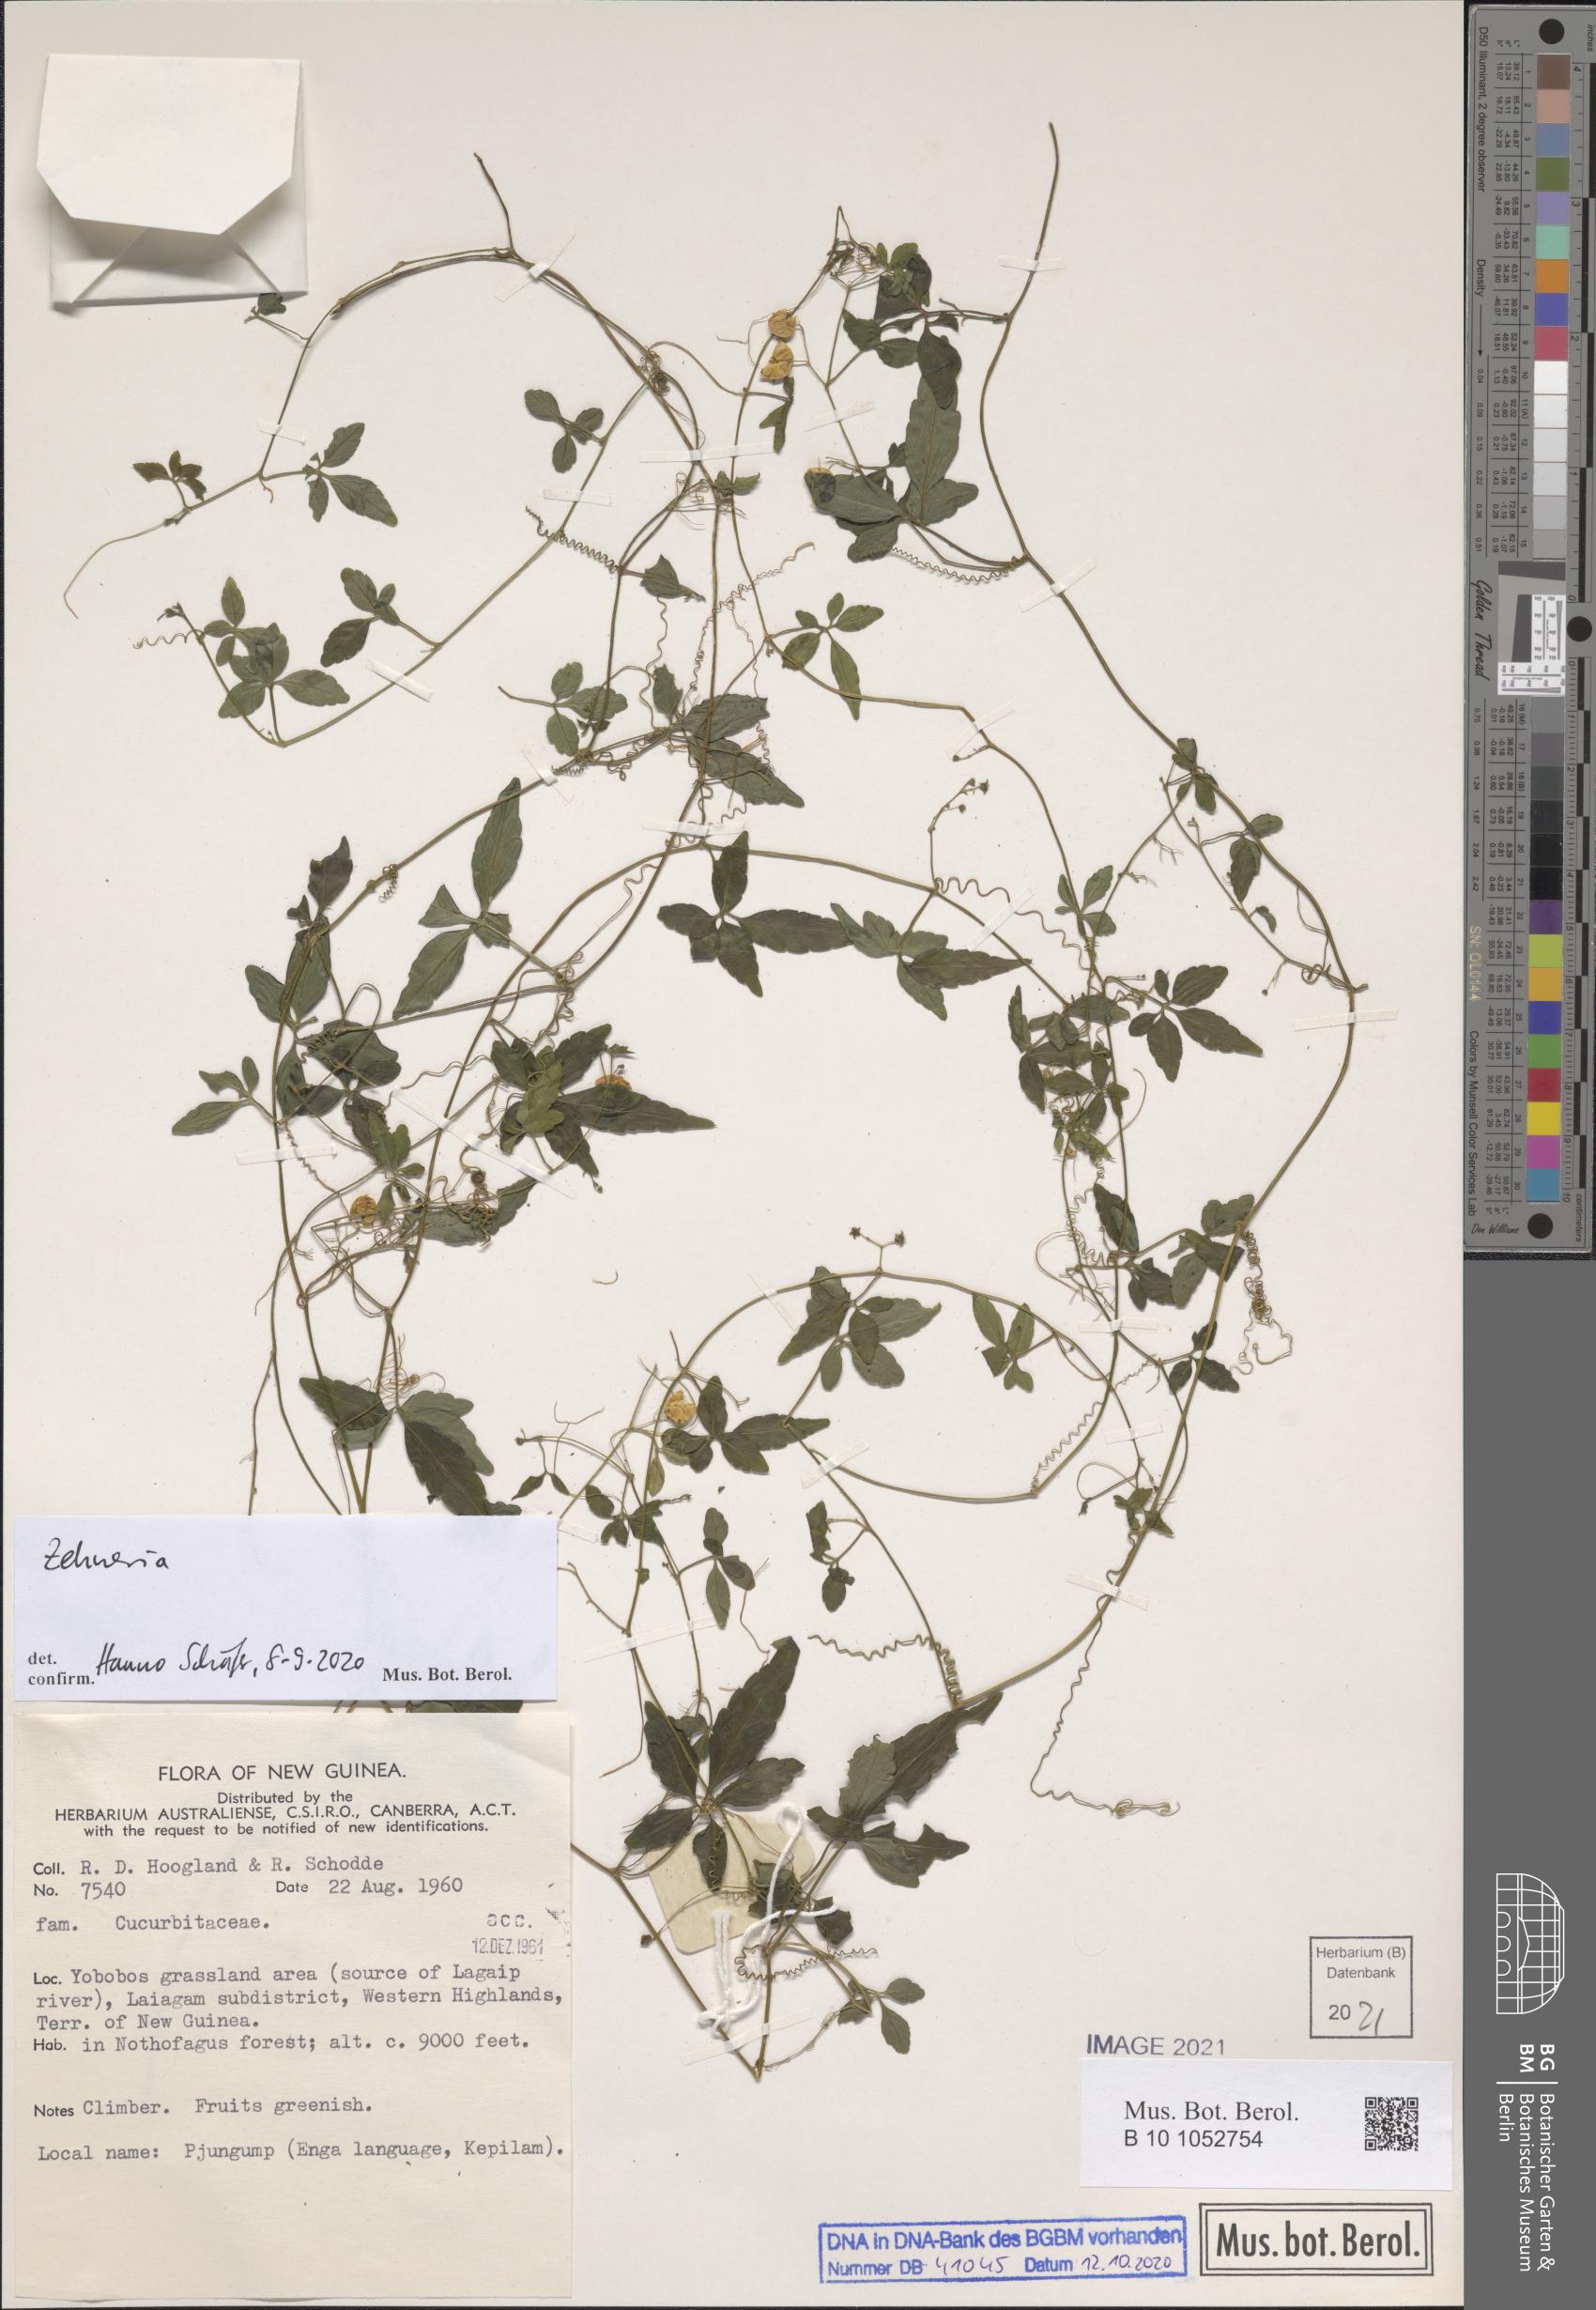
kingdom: Plantae
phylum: Tracheophyta
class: Magnoliopsida
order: Cucurbitales
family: Cucurbitaceae
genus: Zehneria
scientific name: Zehneria
